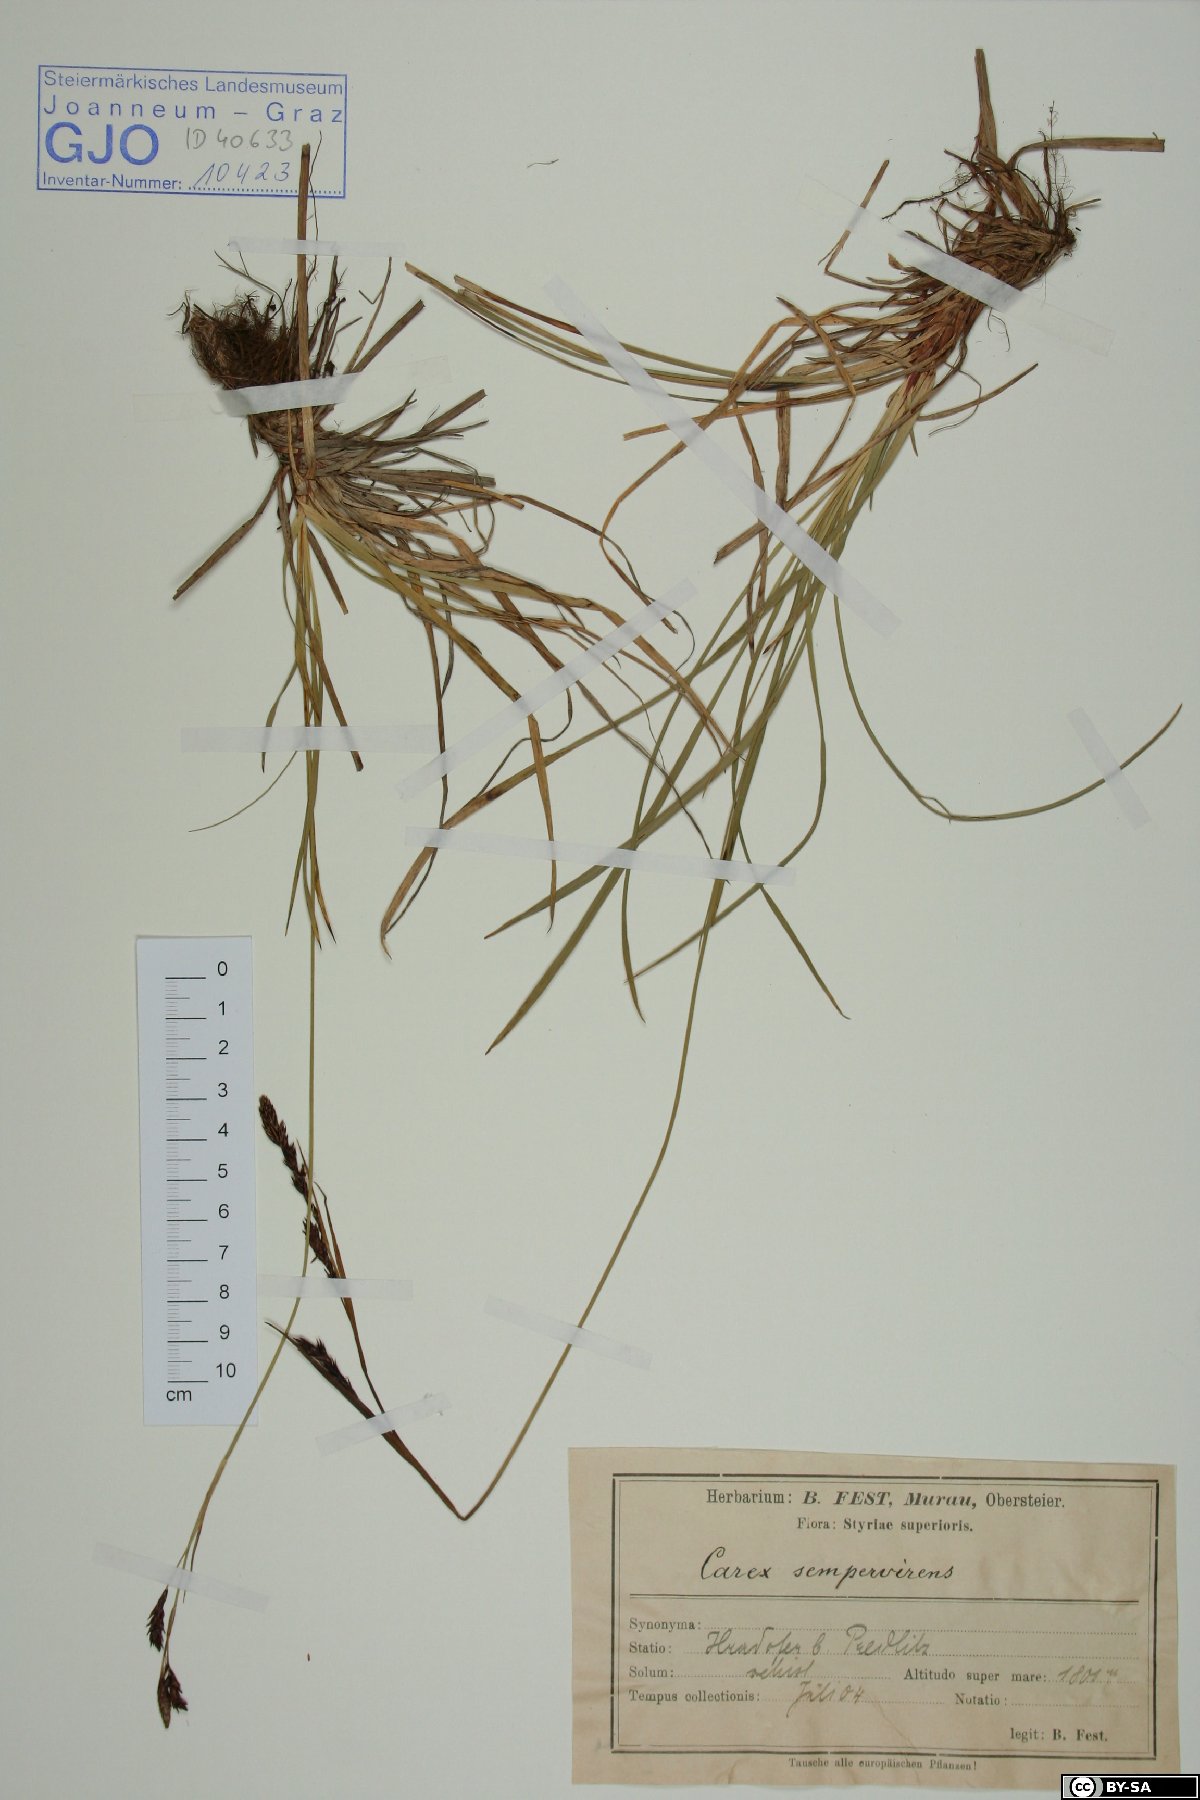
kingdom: Plantae
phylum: Tracheophyta
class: Liliopsida
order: Poales
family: Cyperaceae
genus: Carex
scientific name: Carex sempervirens
